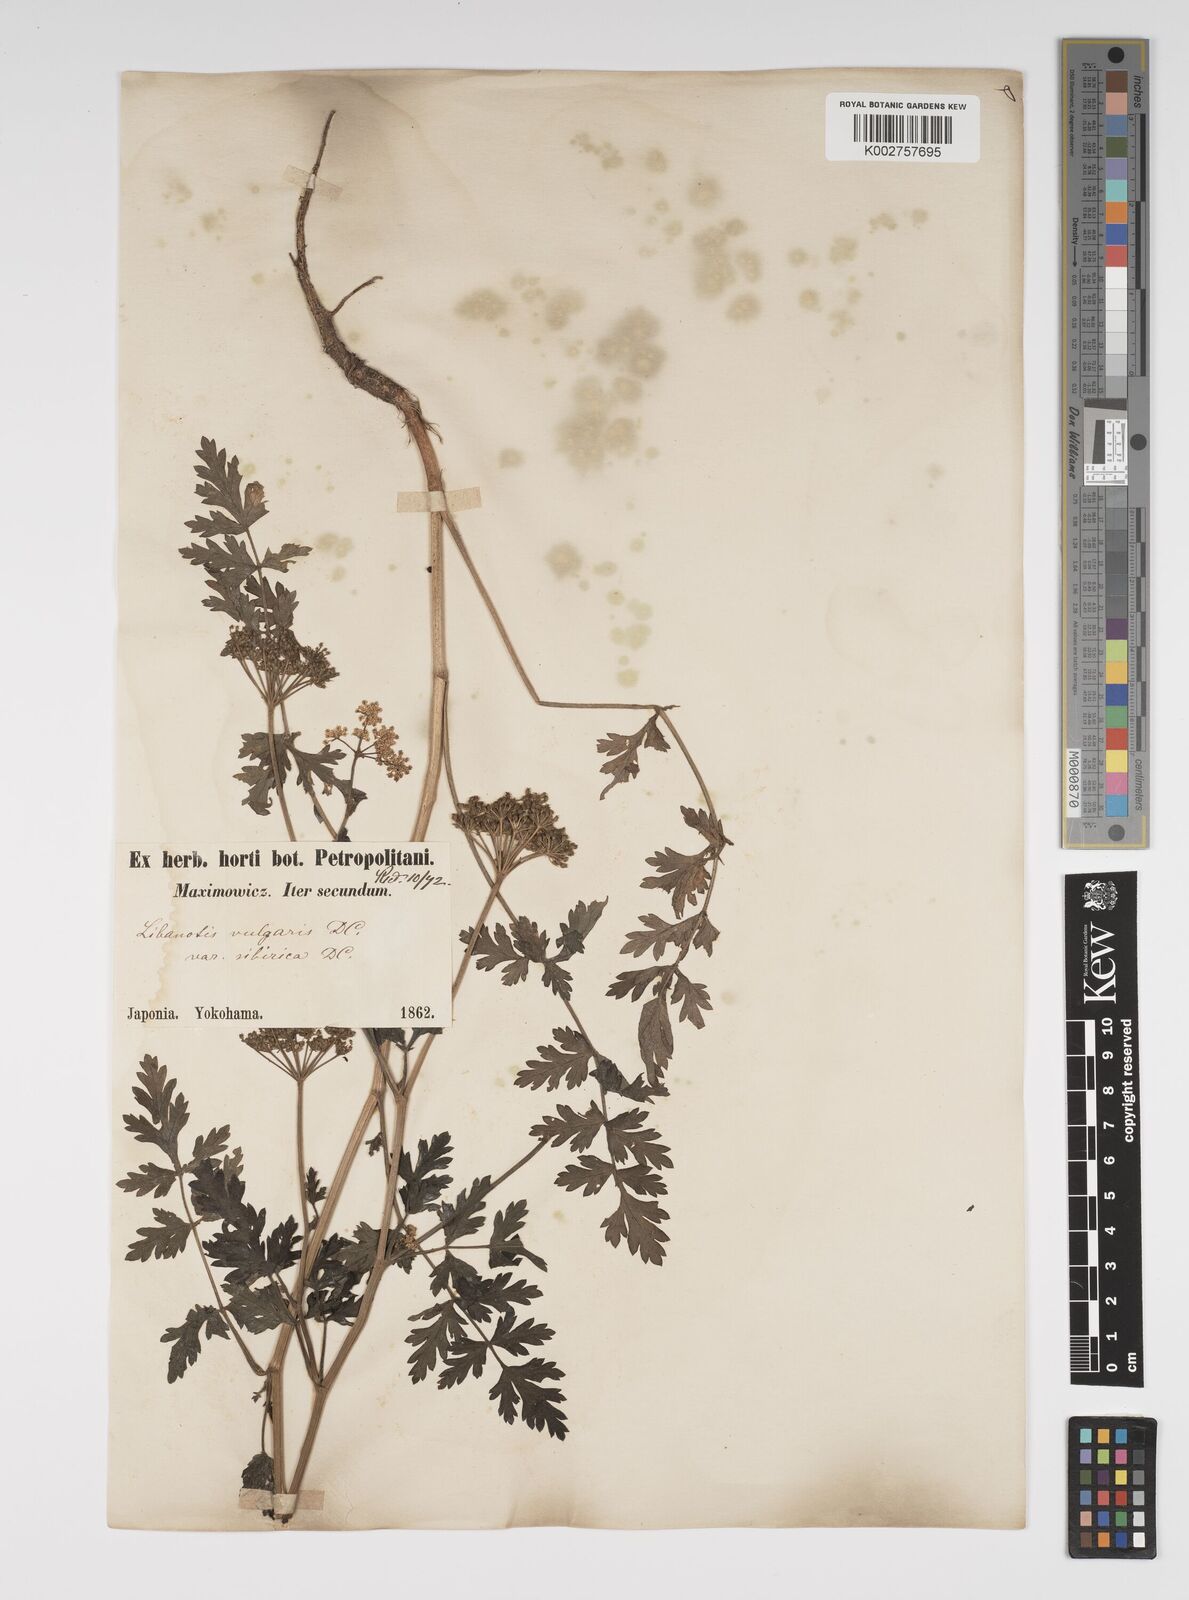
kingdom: Plantae
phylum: Tracheophyta
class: Magnoliopsida
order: Apiales
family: Apiaceae
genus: Seseli
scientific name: Seseli libanotis
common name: Mooncarrot
